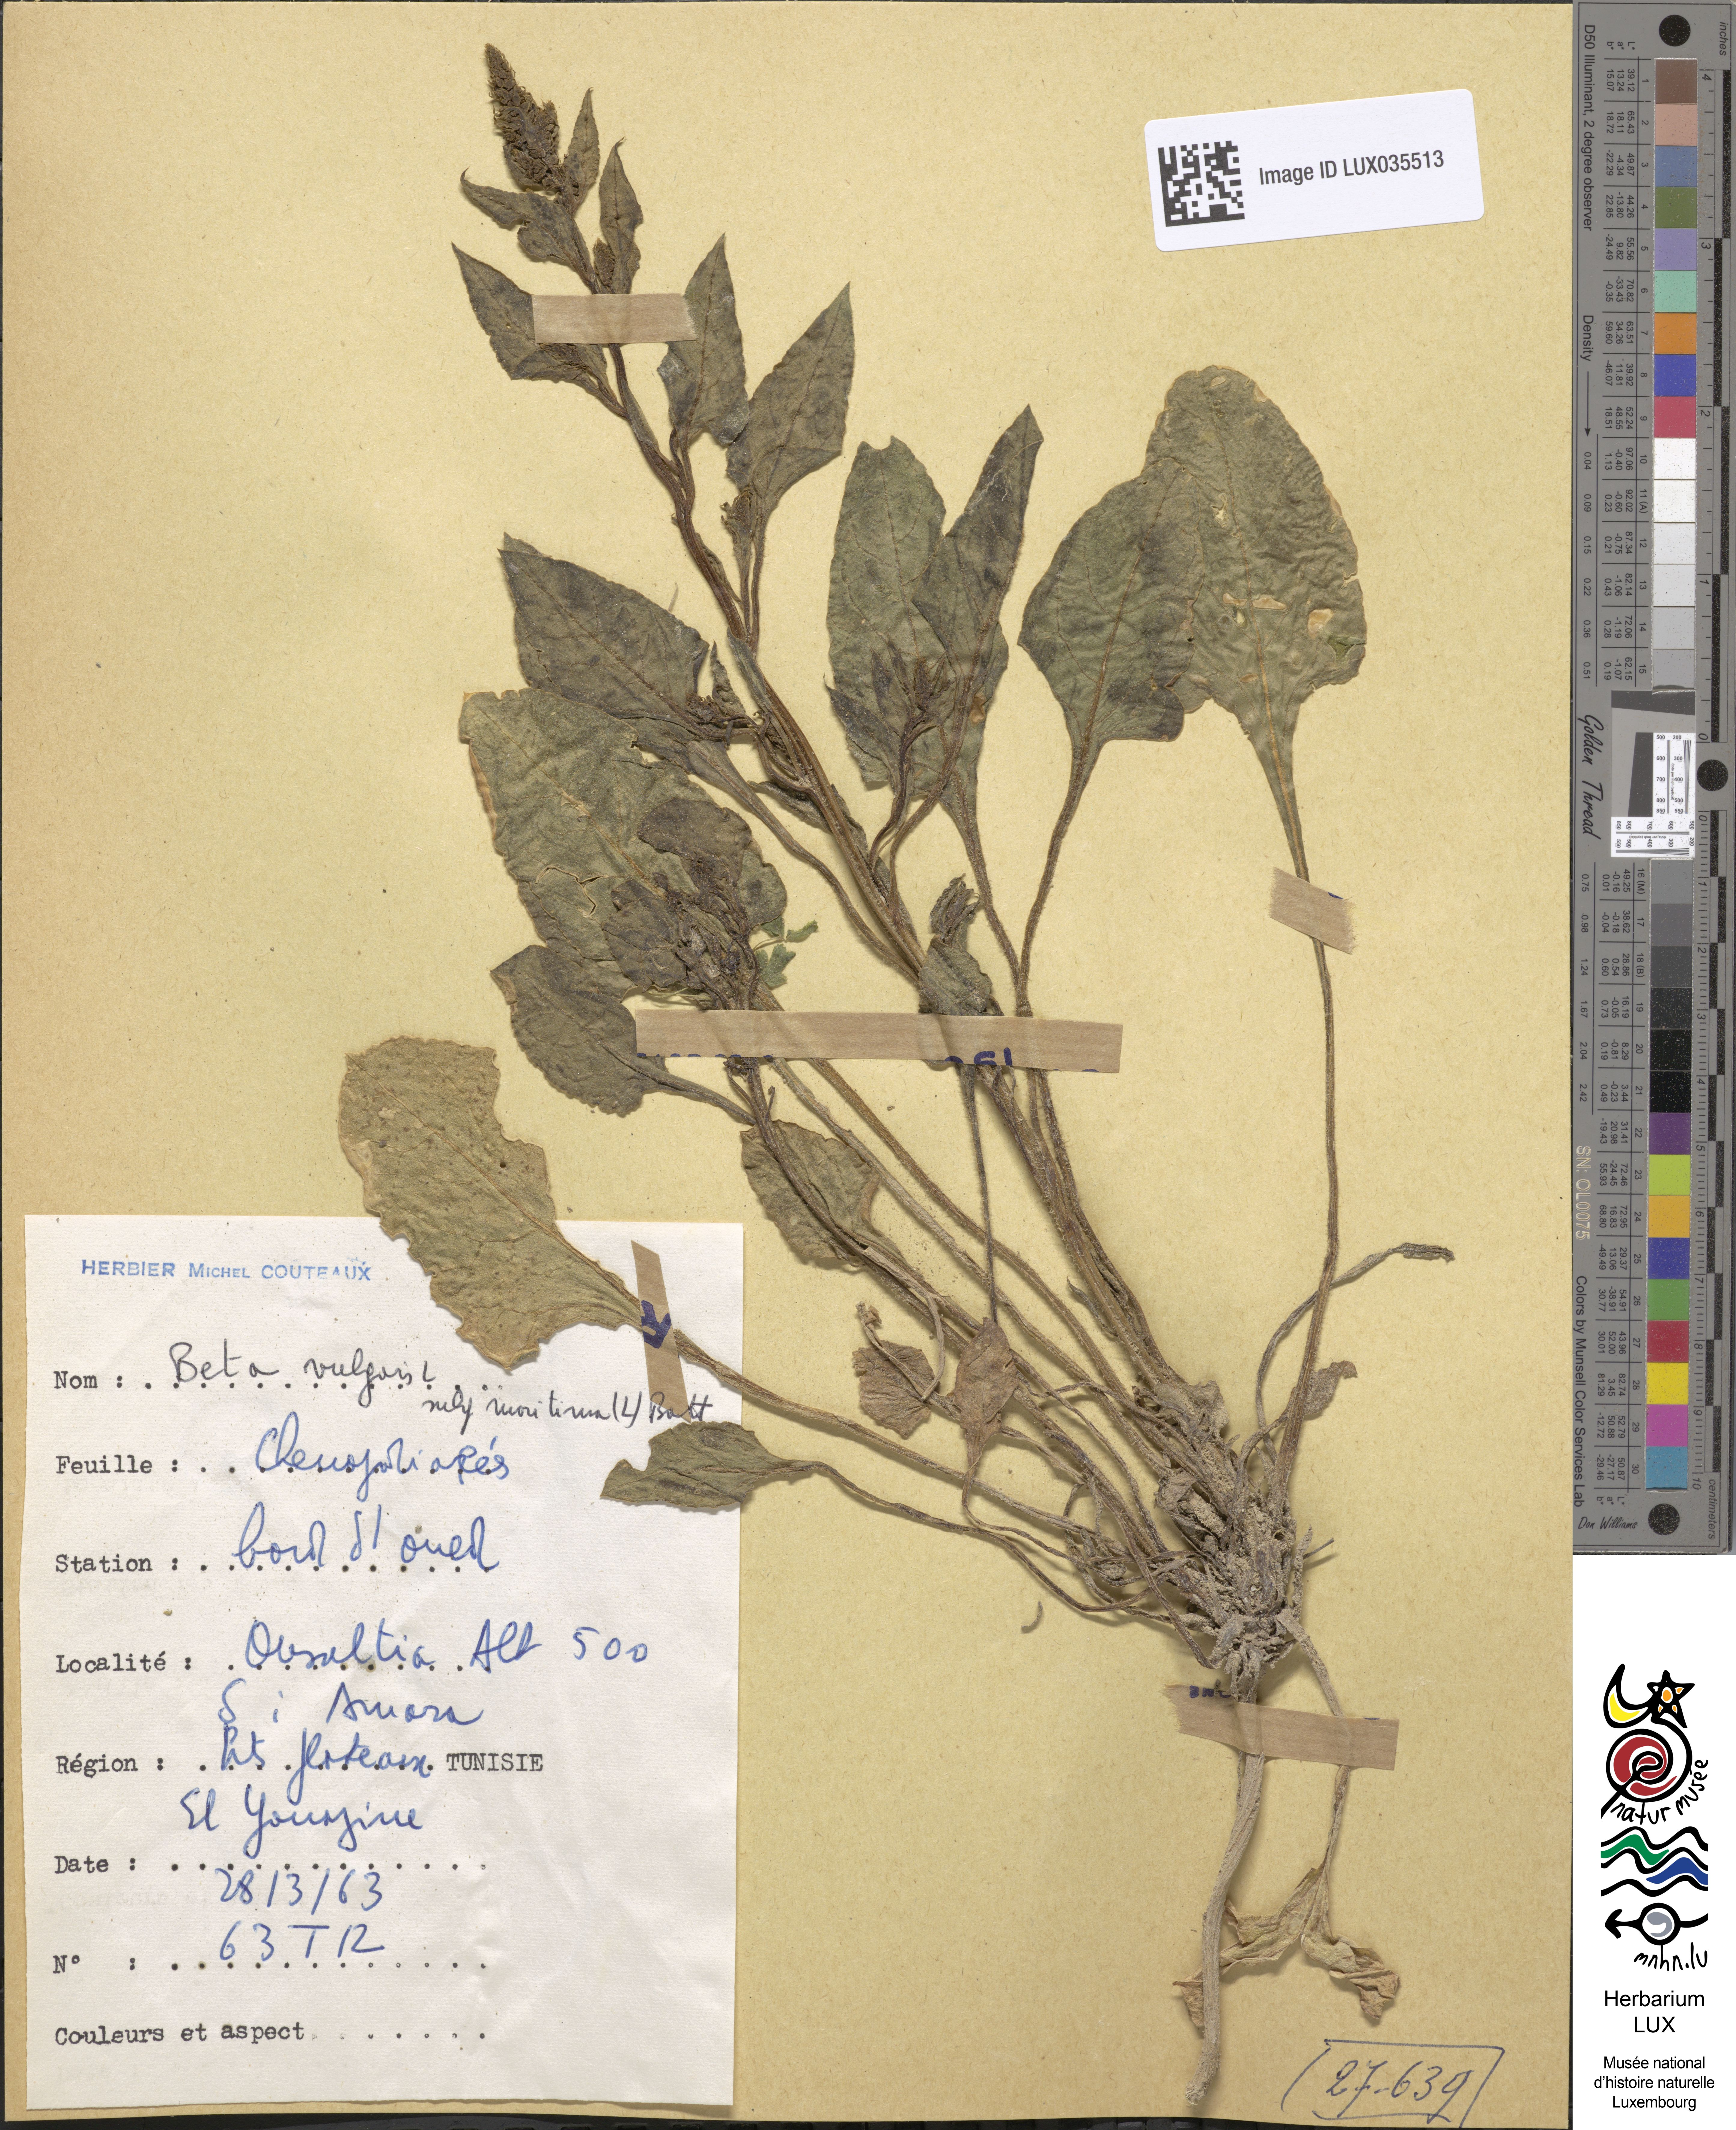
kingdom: Plantae
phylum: Tracheophyta
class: Magnoliopsida
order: Caryophyllales
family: Amaranthaceae
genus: Beta
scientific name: Beta maritima
